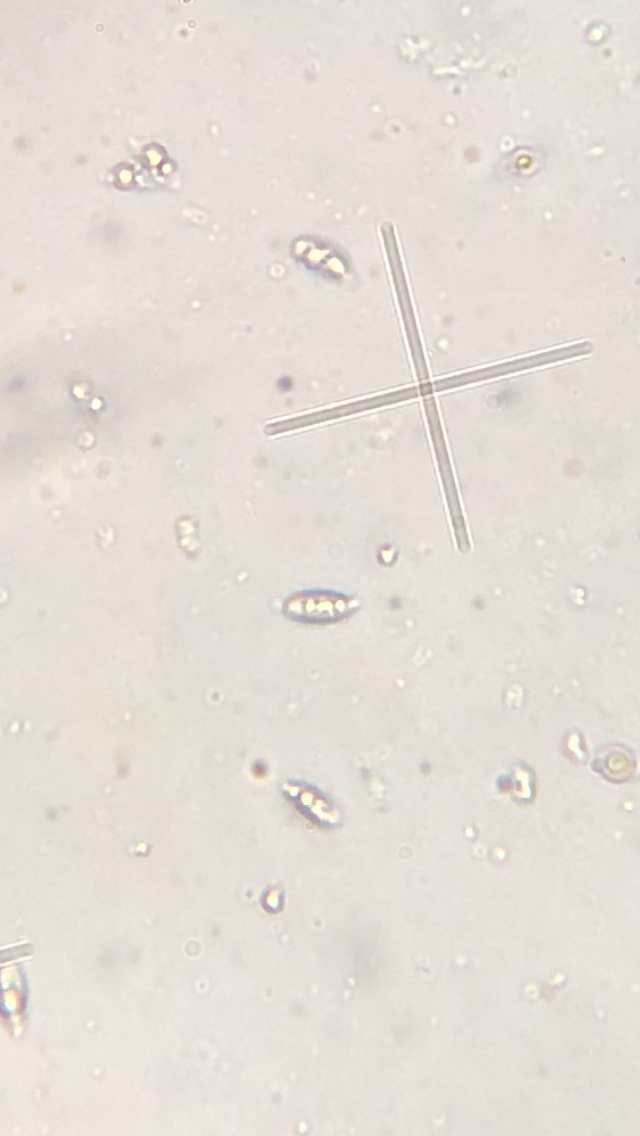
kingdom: Fungi
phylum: Basidiomycota
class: Agaricomycetes
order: Agaricales
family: Omphalotaceae
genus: Collybiopsis
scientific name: Collybiopsis ramealis
